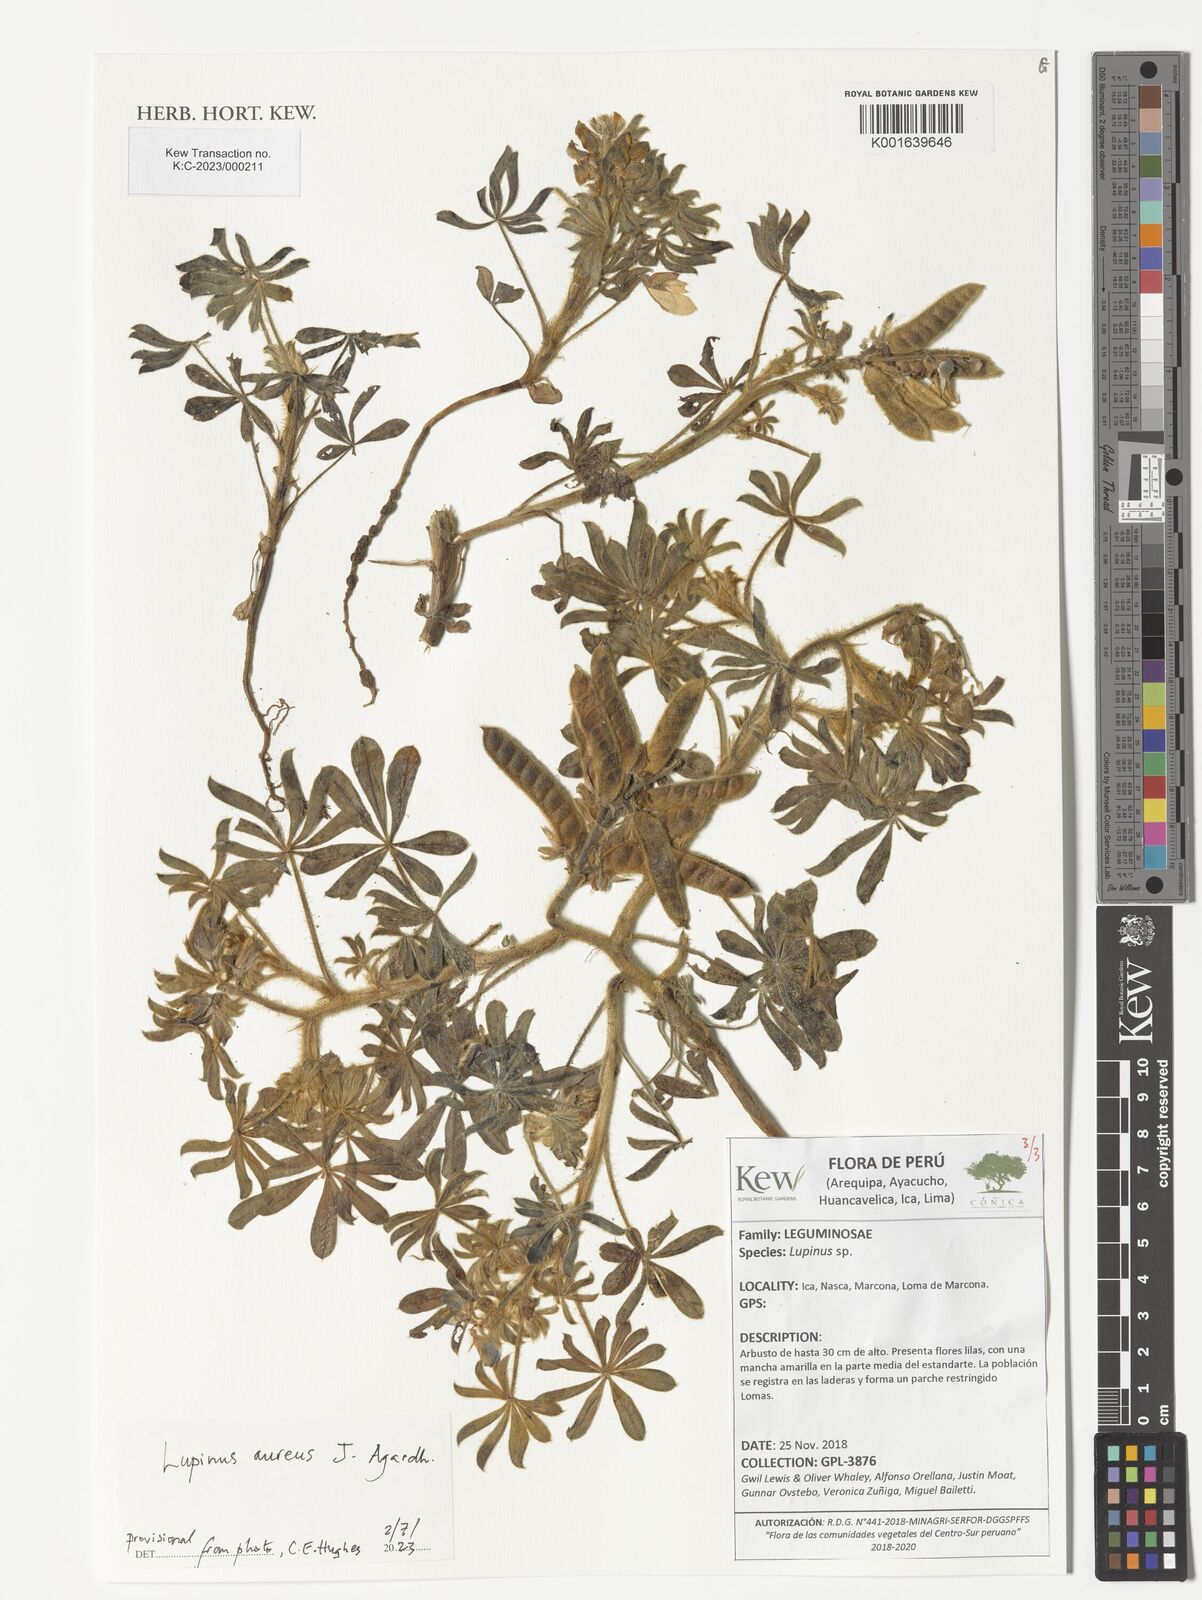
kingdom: Plantae
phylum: Tracheophyta
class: Magnoliopsida
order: Fabales
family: Fabaceae
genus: Lupinus
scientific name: Lupinus aureus
